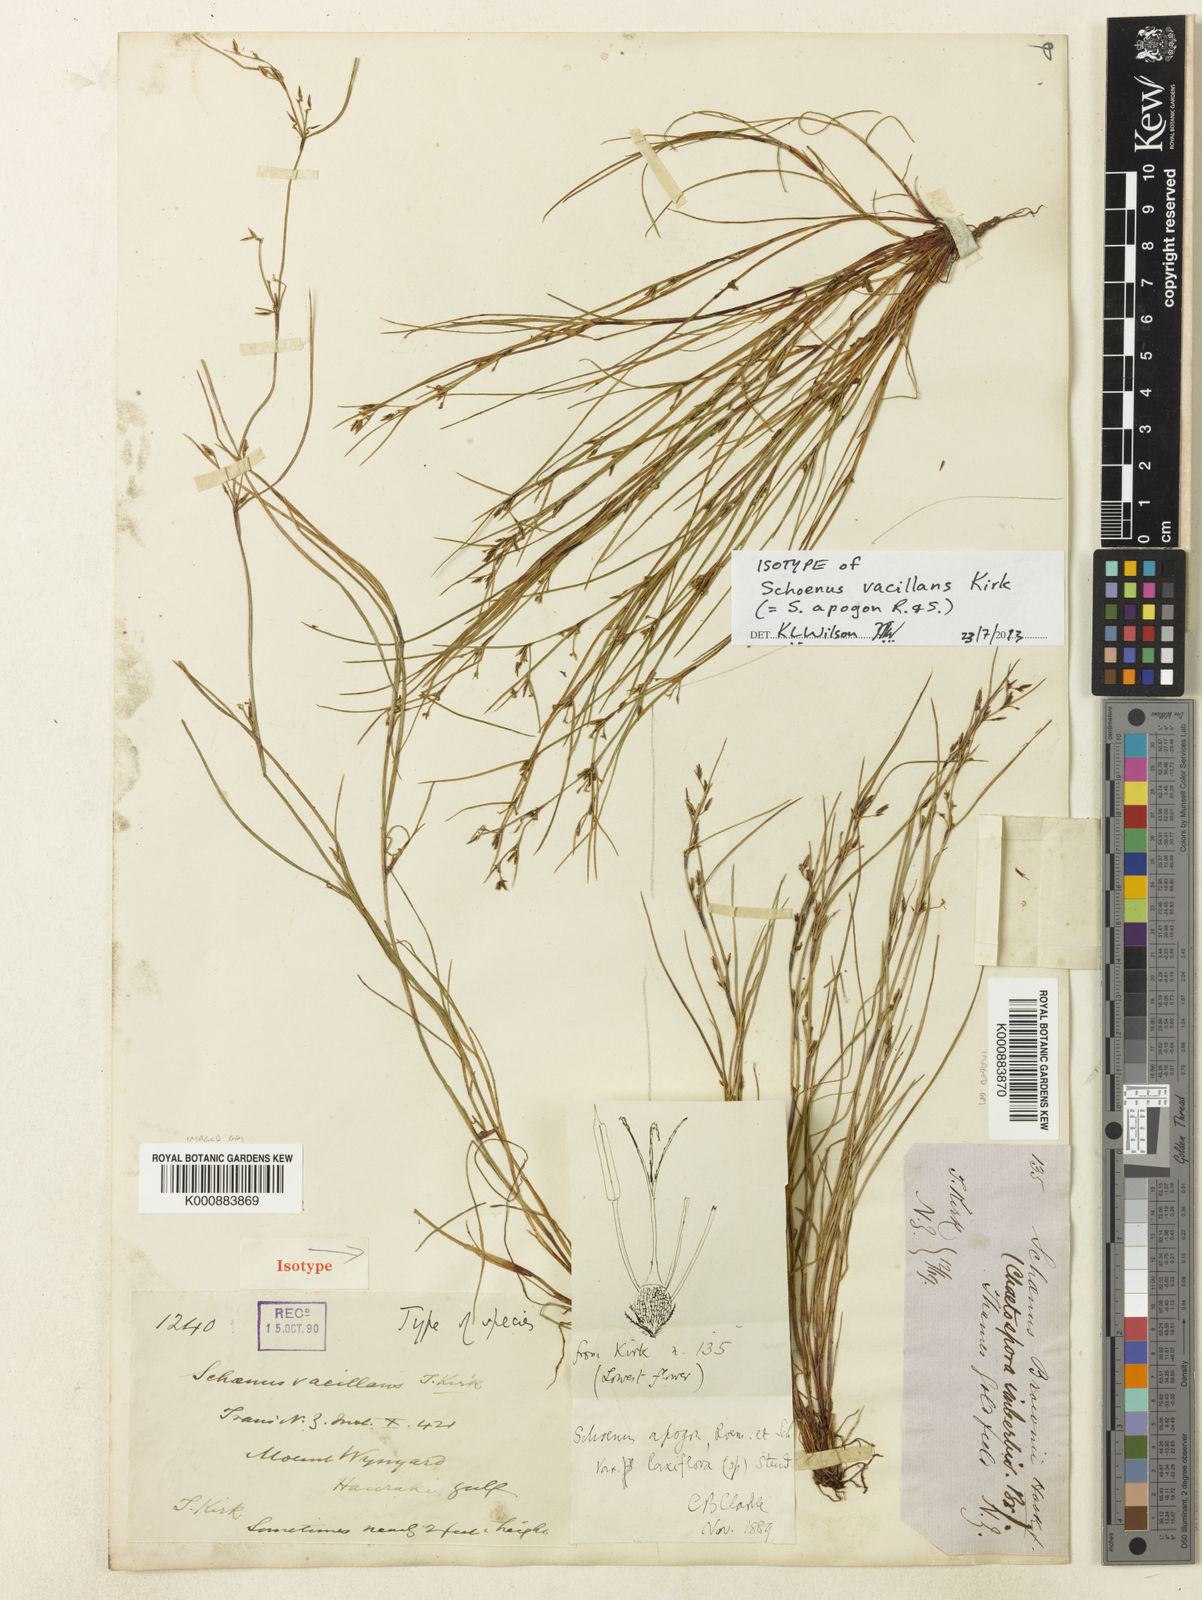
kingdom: Plantae
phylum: Tracheophyta
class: Liliopsida
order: Poales
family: Cyperaceae
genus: Schoenus
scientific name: Schoenus apogon
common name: Smooth bogrush
